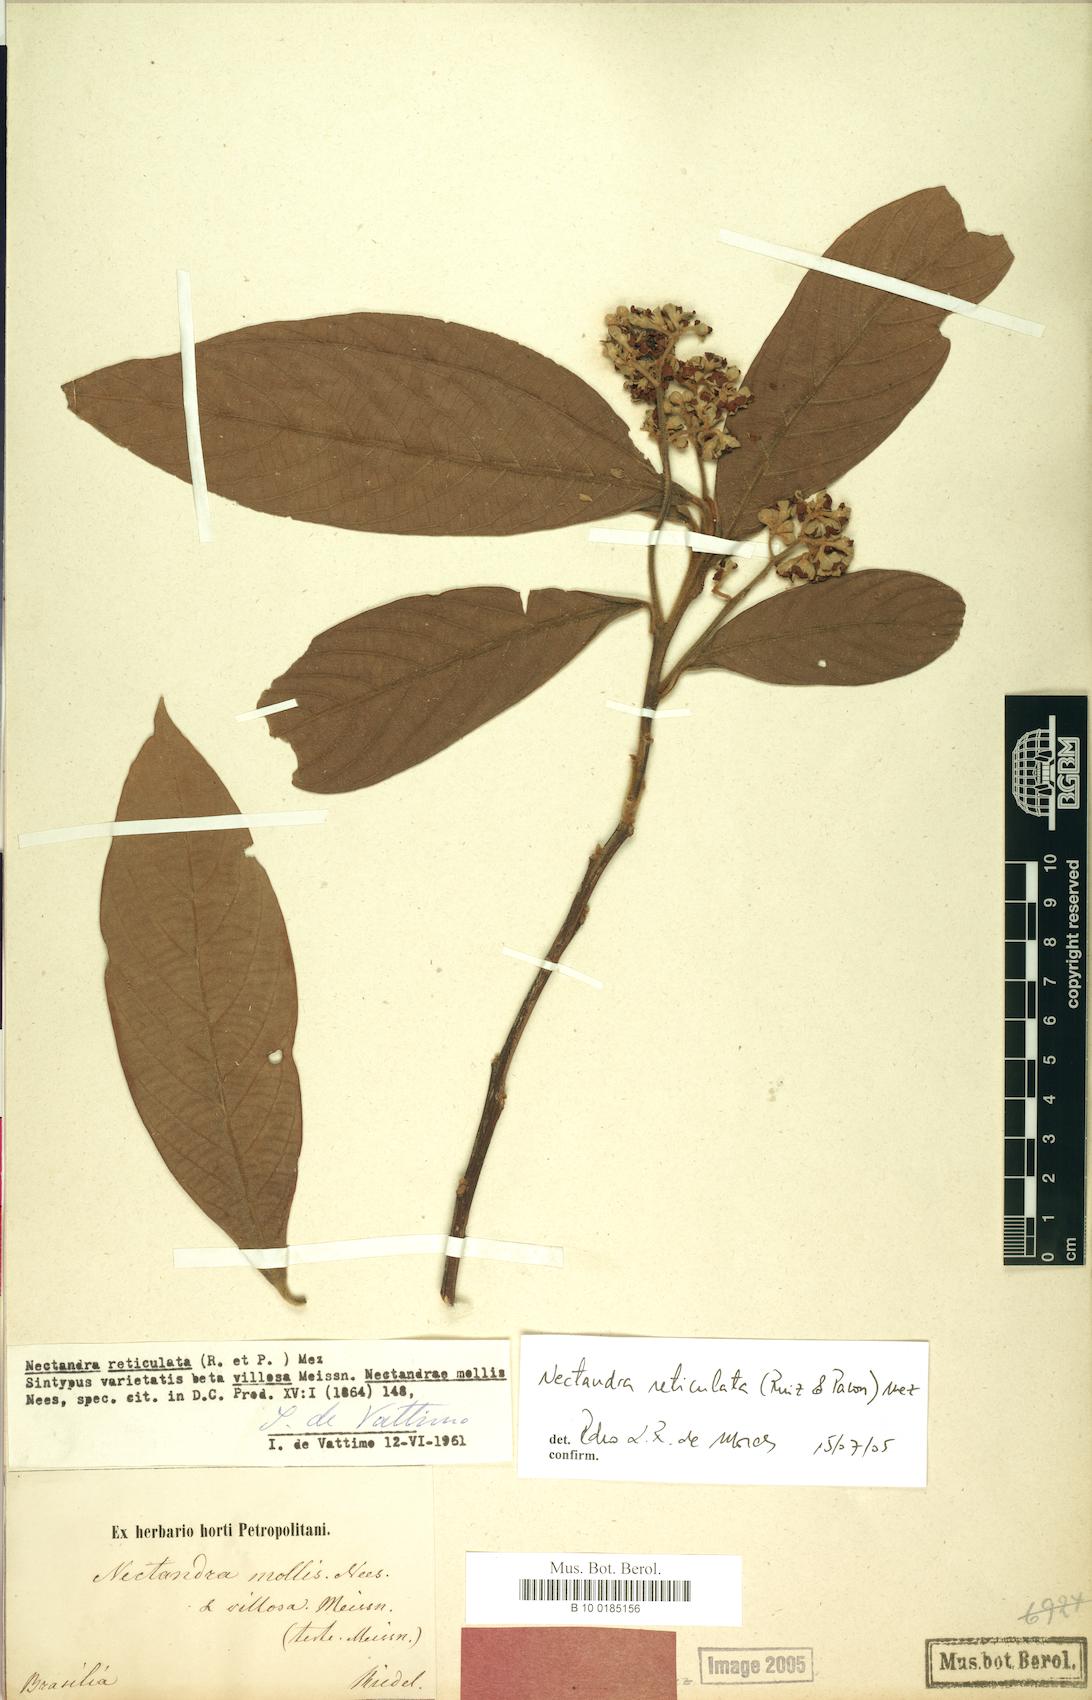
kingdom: Plantae
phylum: Tracheophyta
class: Magnoliopsida
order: Laurales
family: Lauraceae
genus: Nectandra
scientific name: Nectandra villosa
